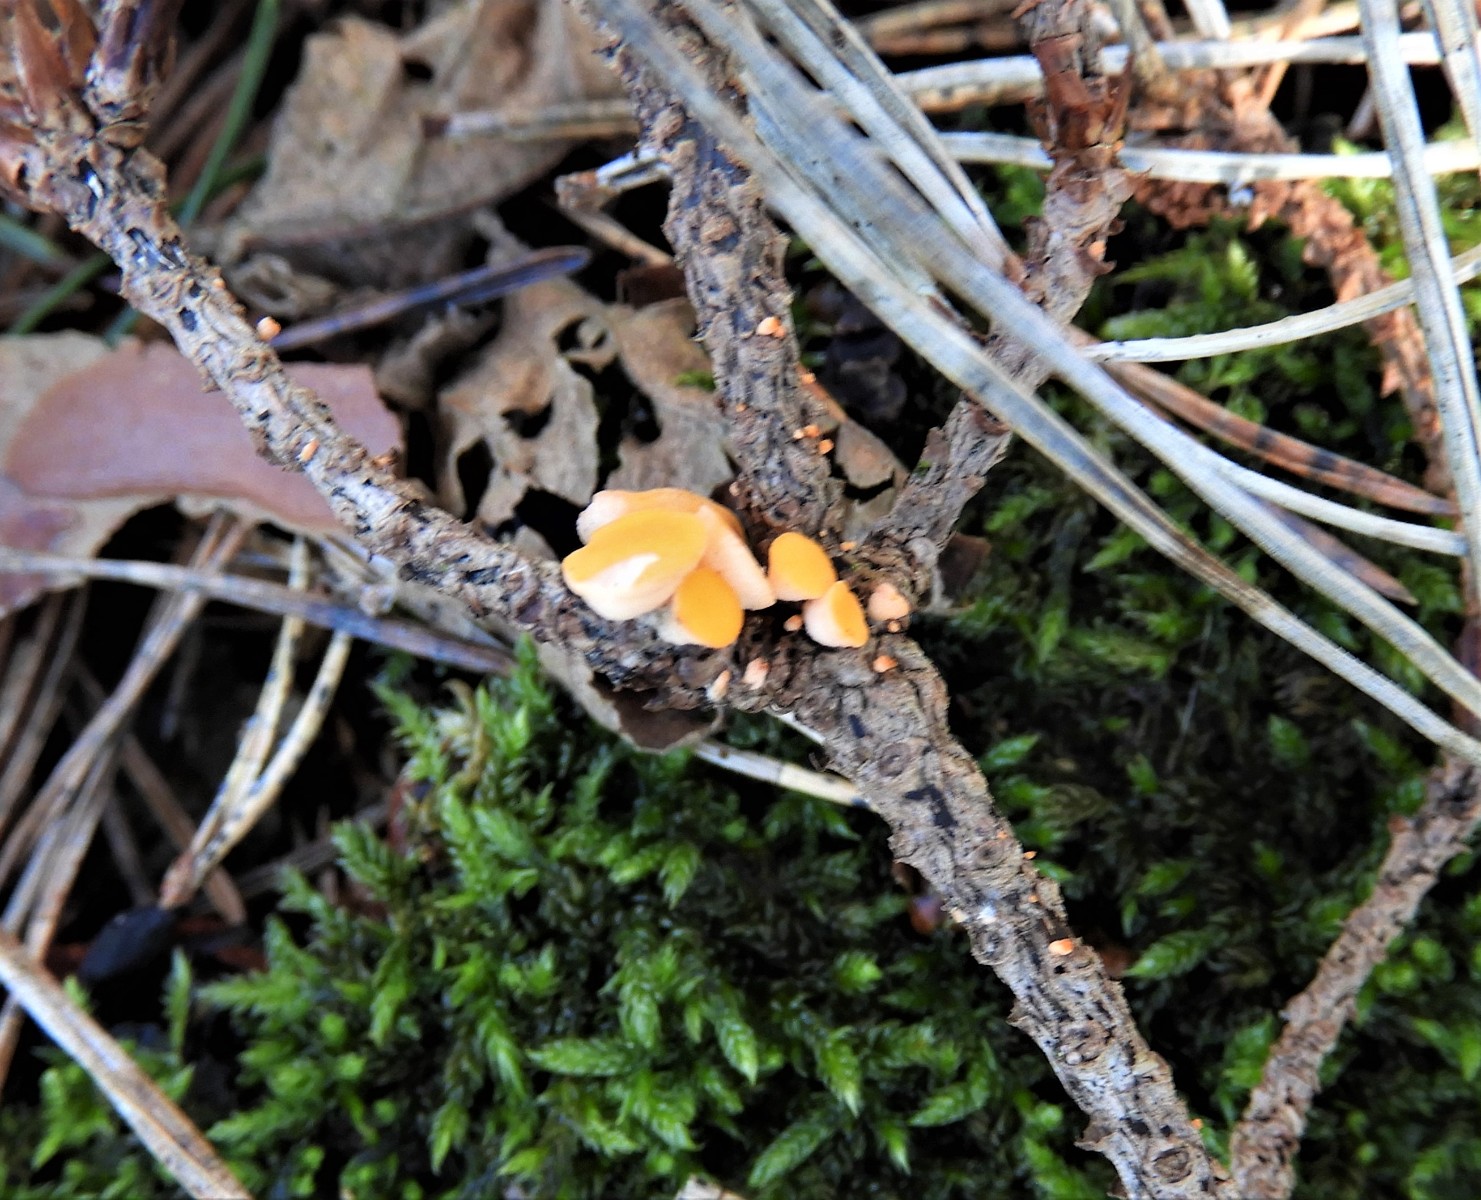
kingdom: Fungi
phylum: Ascomycota
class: Pezizomycetes
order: Pezizales
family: Sarcoscyphaceae
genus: Pithya
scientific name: Pithya vulgaris
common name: stor dukatbæger
